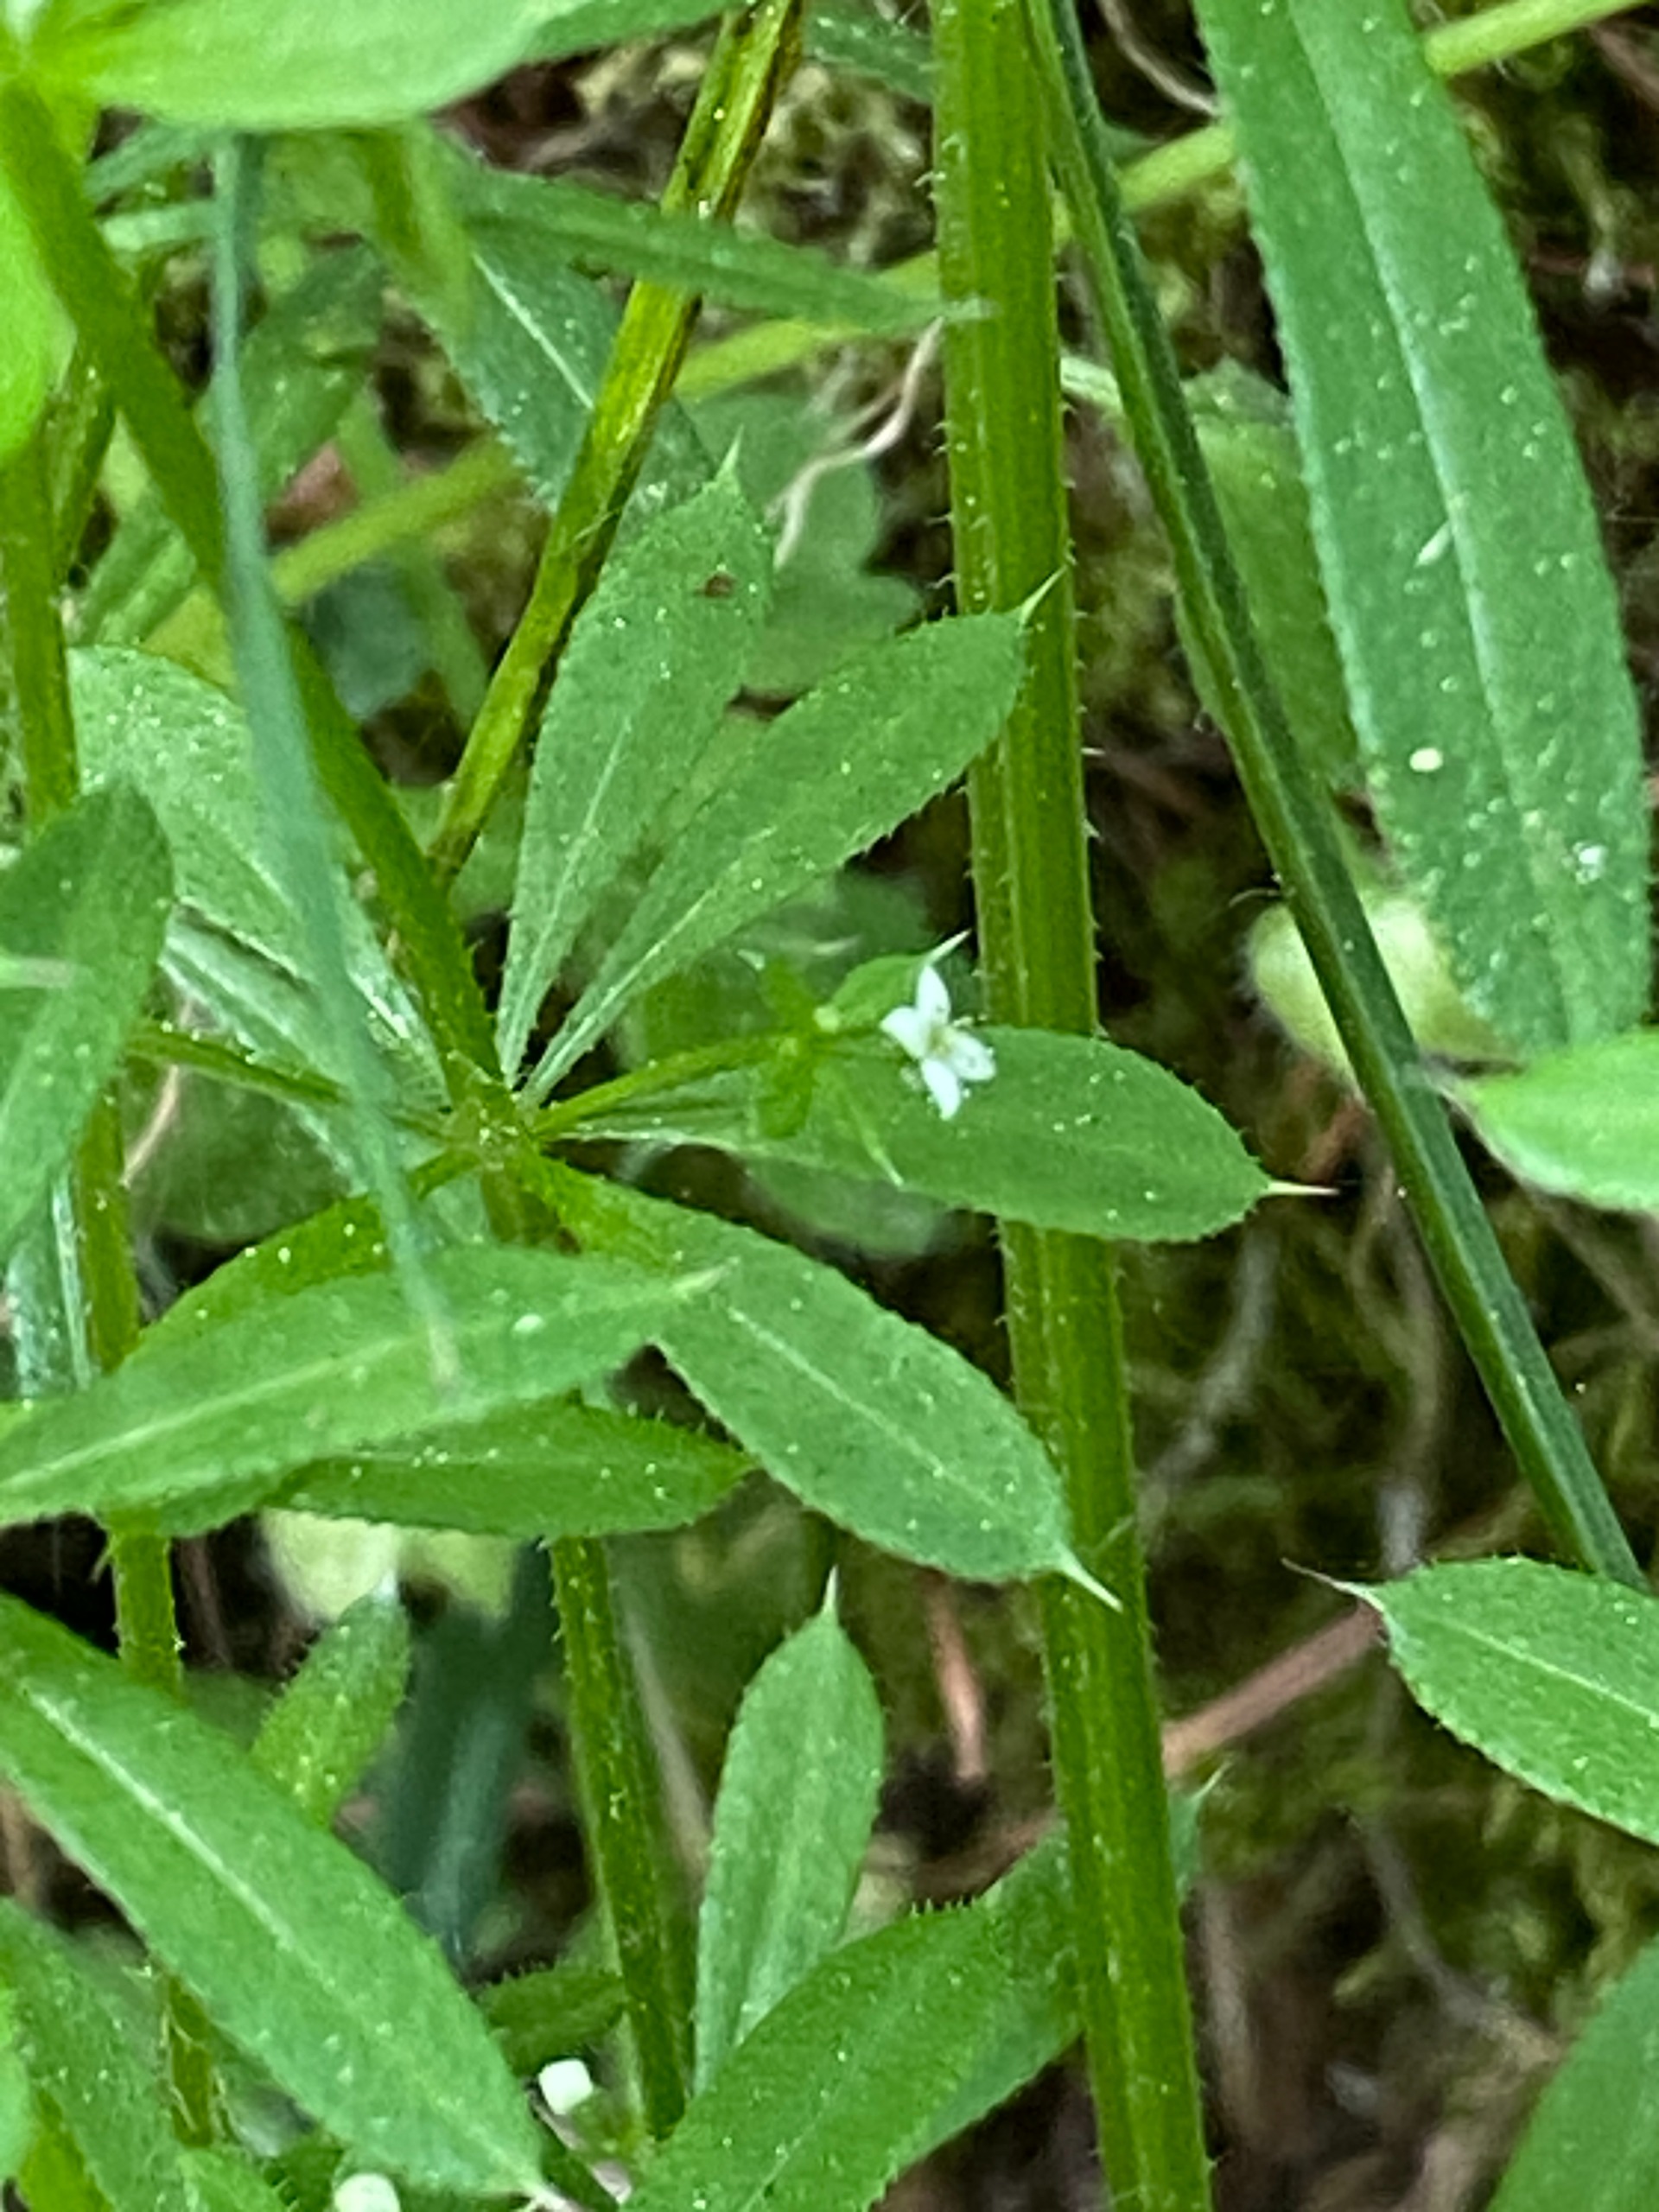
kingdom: Plantae
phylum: Tracheophyta
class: Magnoliopsida
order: Gentianales
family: Rubiaceae
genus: Galium
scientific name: Galium aparine
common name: Burre-snerre
